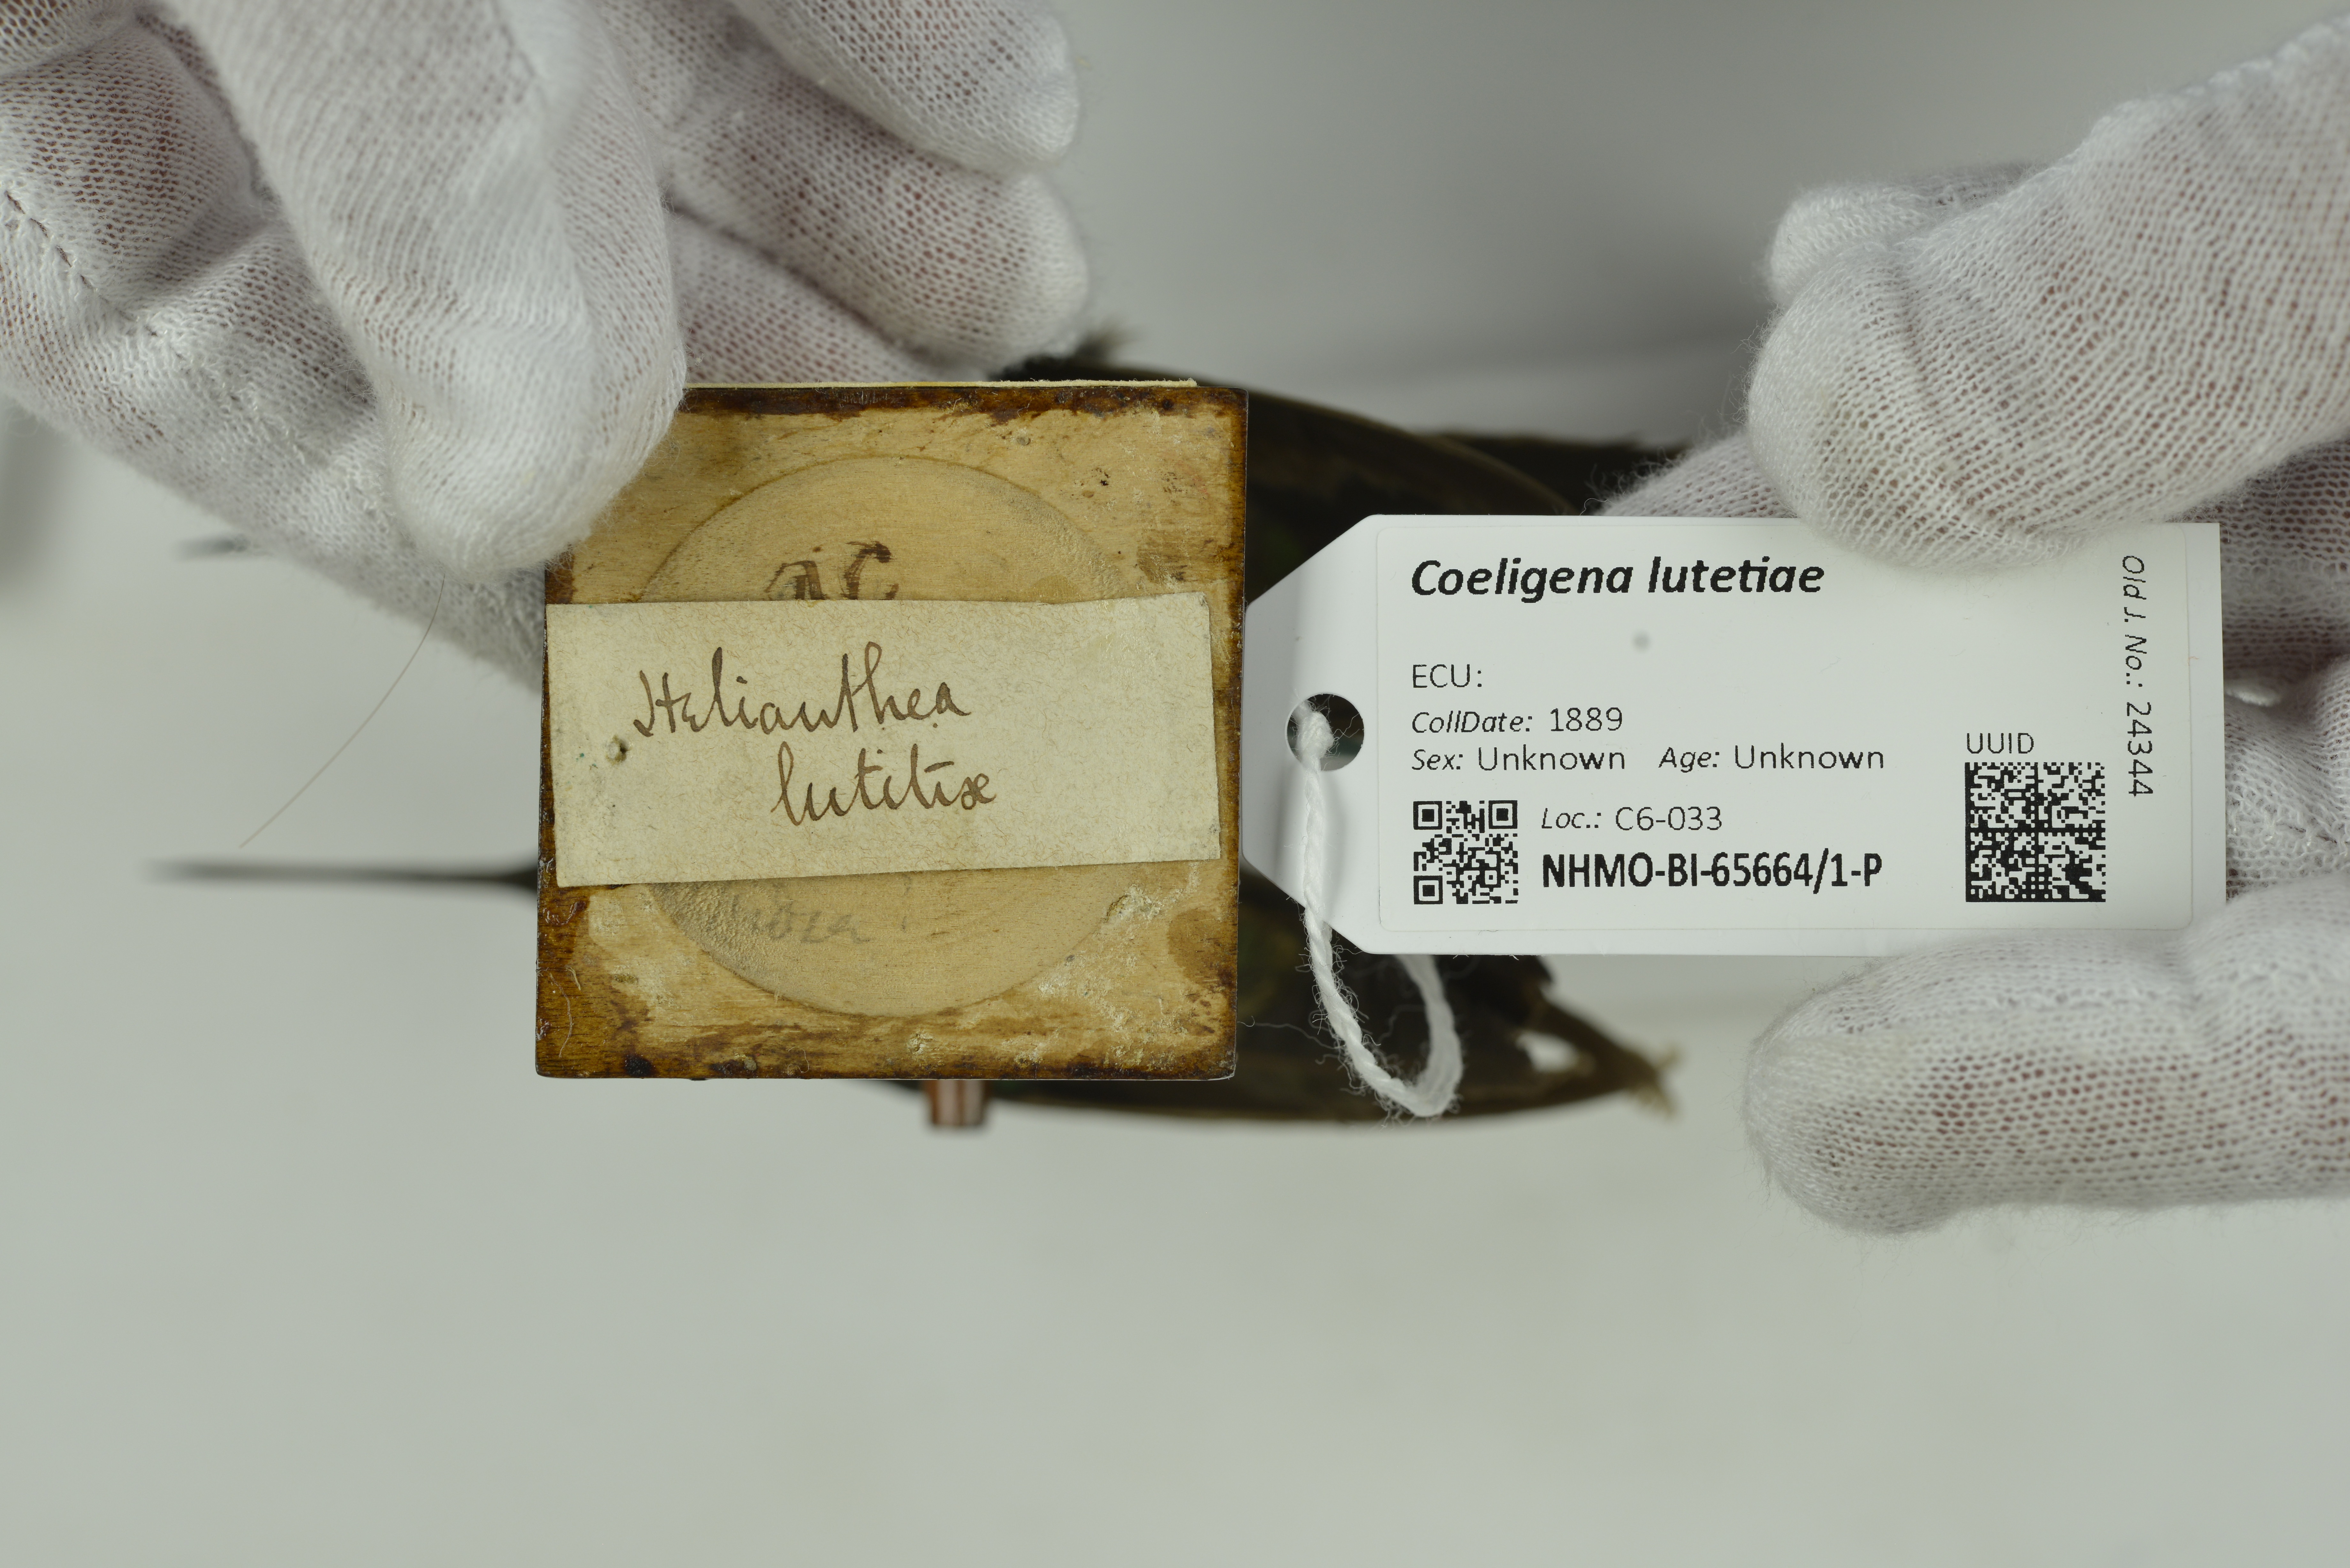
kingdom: Animalia
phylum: Chordata
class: Aves
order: Apodiformes
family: Trochilidae
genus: Coeligena
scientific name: Coeligena lutetiae
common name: Buff-winged starfrontlet
